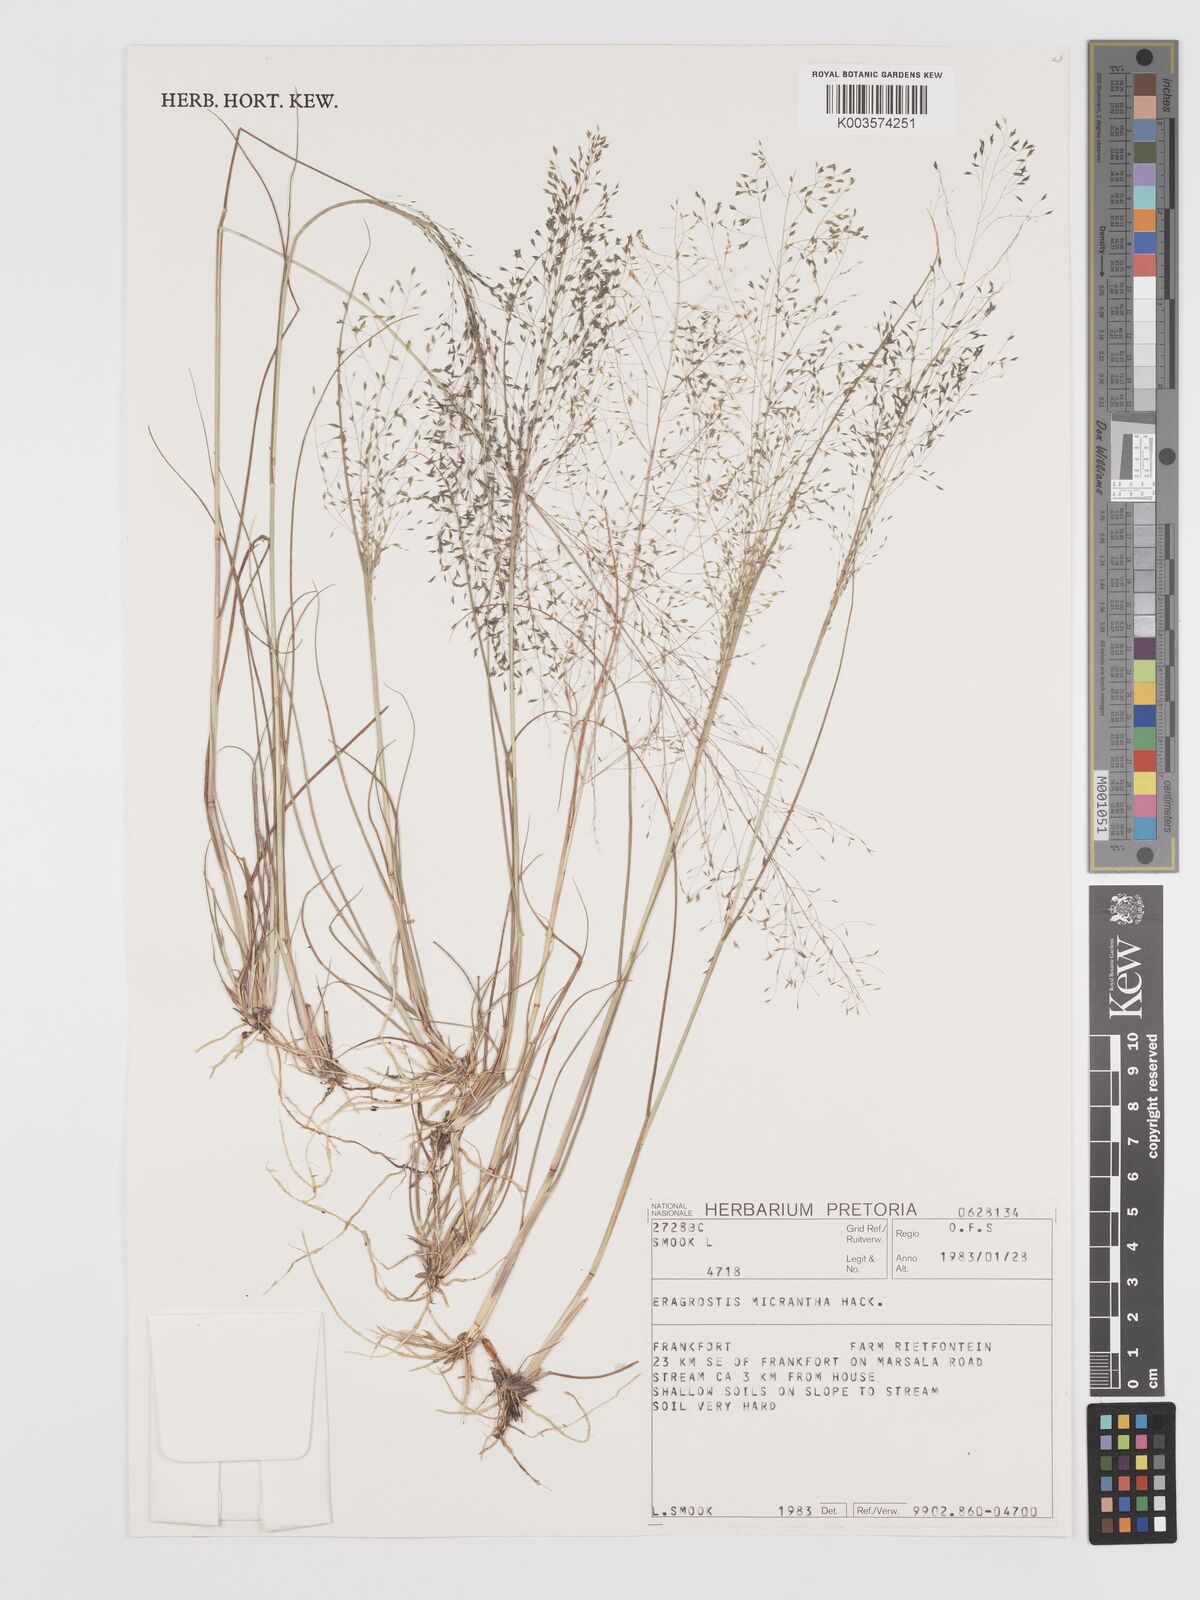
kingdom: Plantae
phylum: Tracheophyta
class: Liliopsida
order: Poales
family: Poaceae
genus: Eragrostis
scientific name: Eragrostis micrantha
